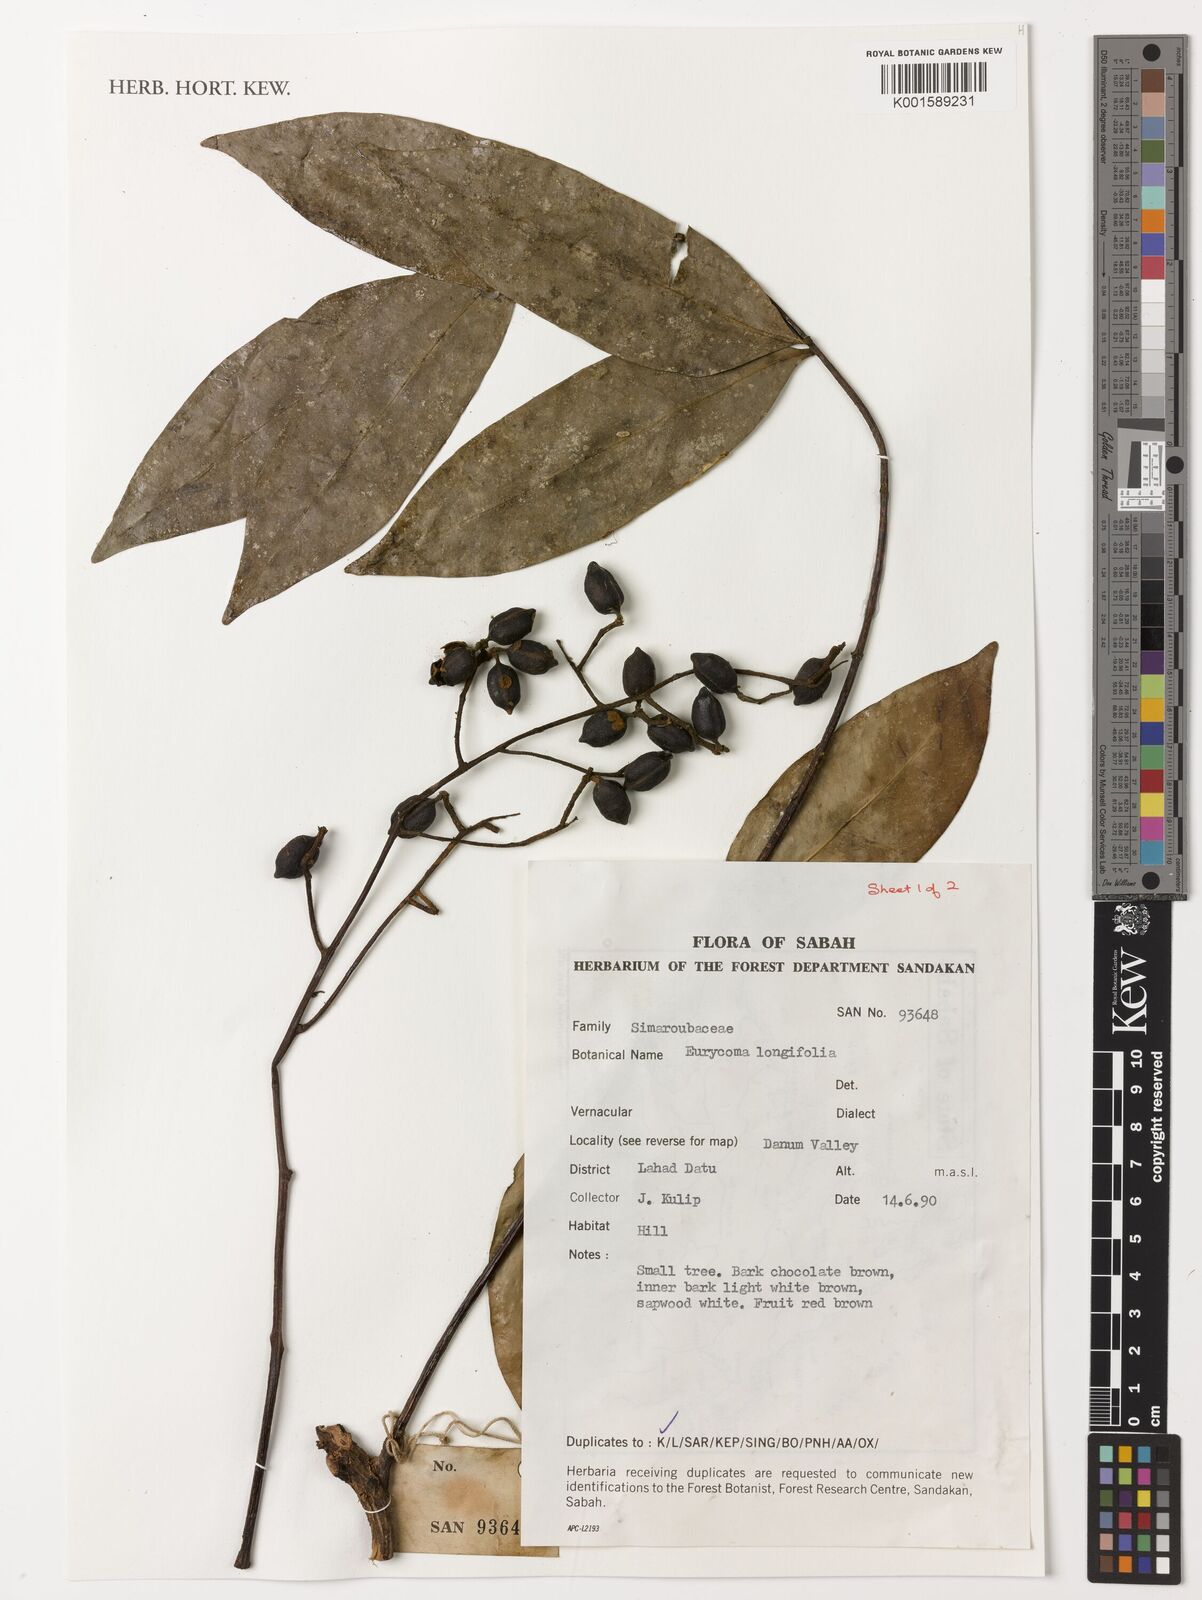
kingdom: Plantae
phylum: Tracheophyta
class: Magnoliopsida
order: Sapindales
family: Simaroubaceae
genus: Eurycoma
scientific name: Eurycoma longifolia
